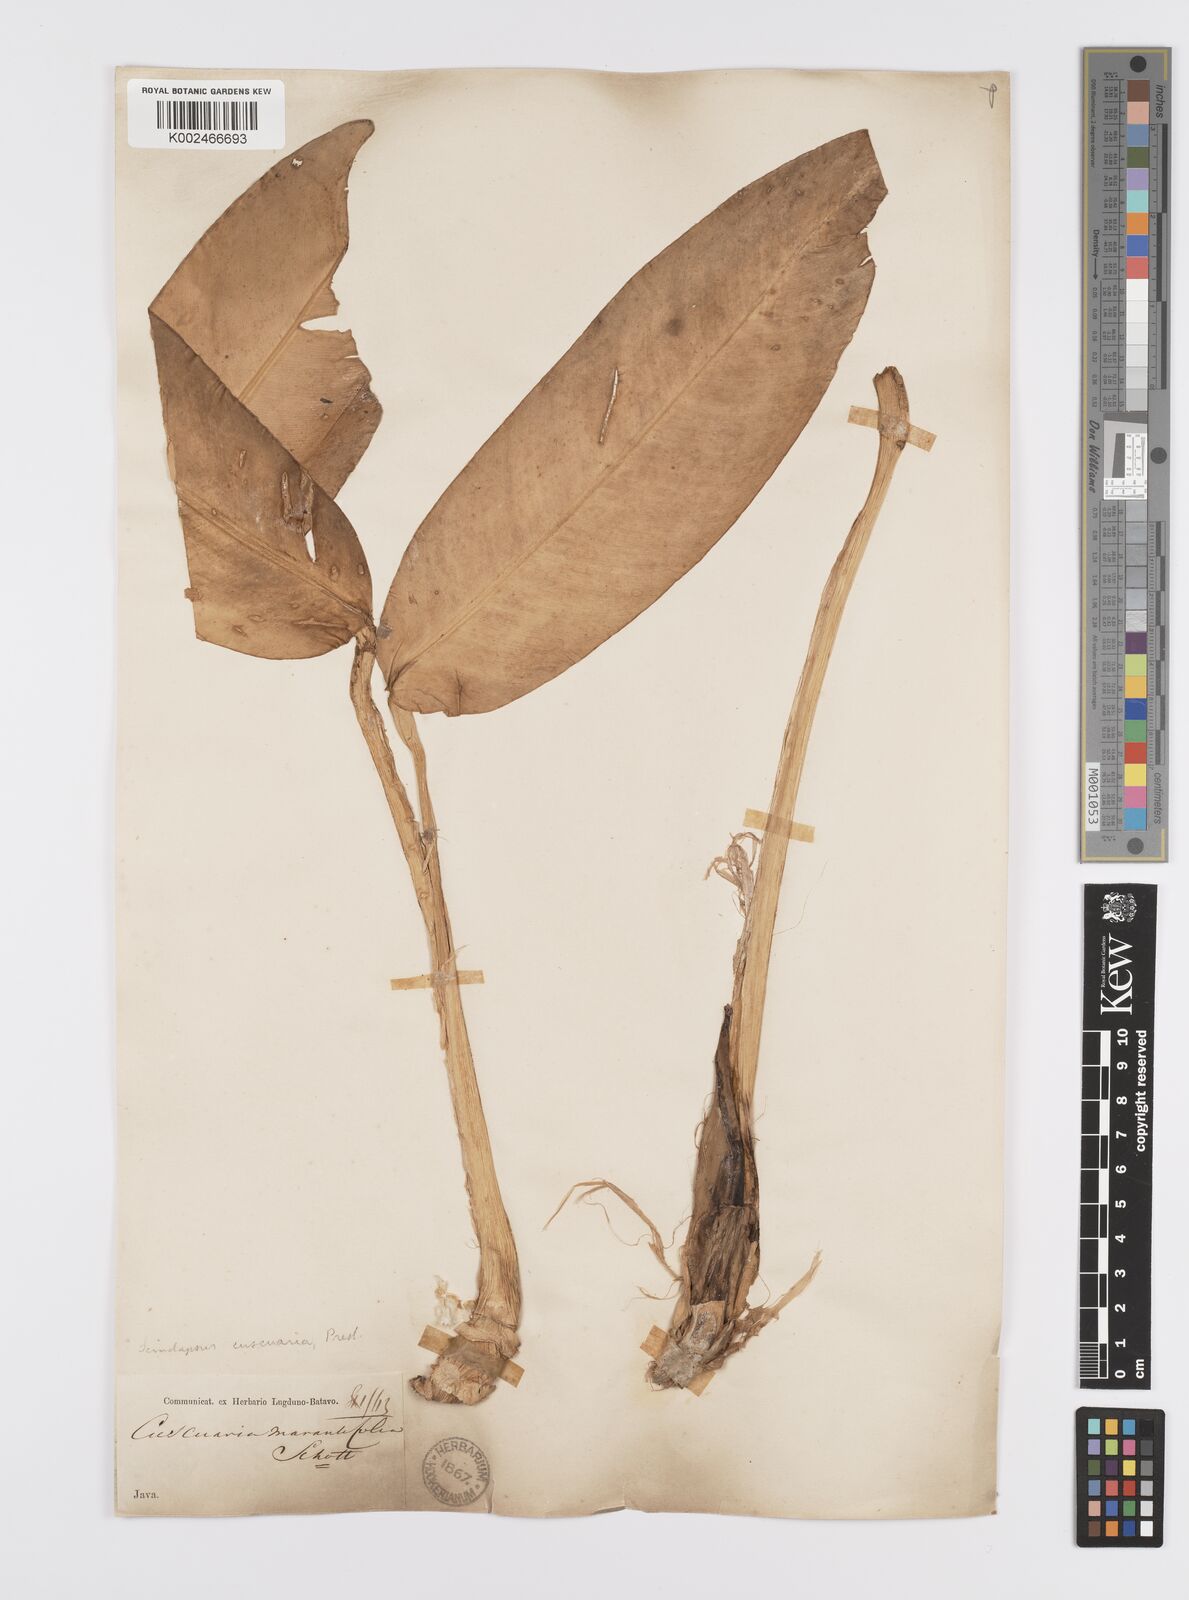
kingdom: Plantae
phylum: Tracheophyta
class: Liliopsida
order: Alismatales
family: Araceae
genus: Scindapsus
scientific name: Scindapsus cuscuaria
